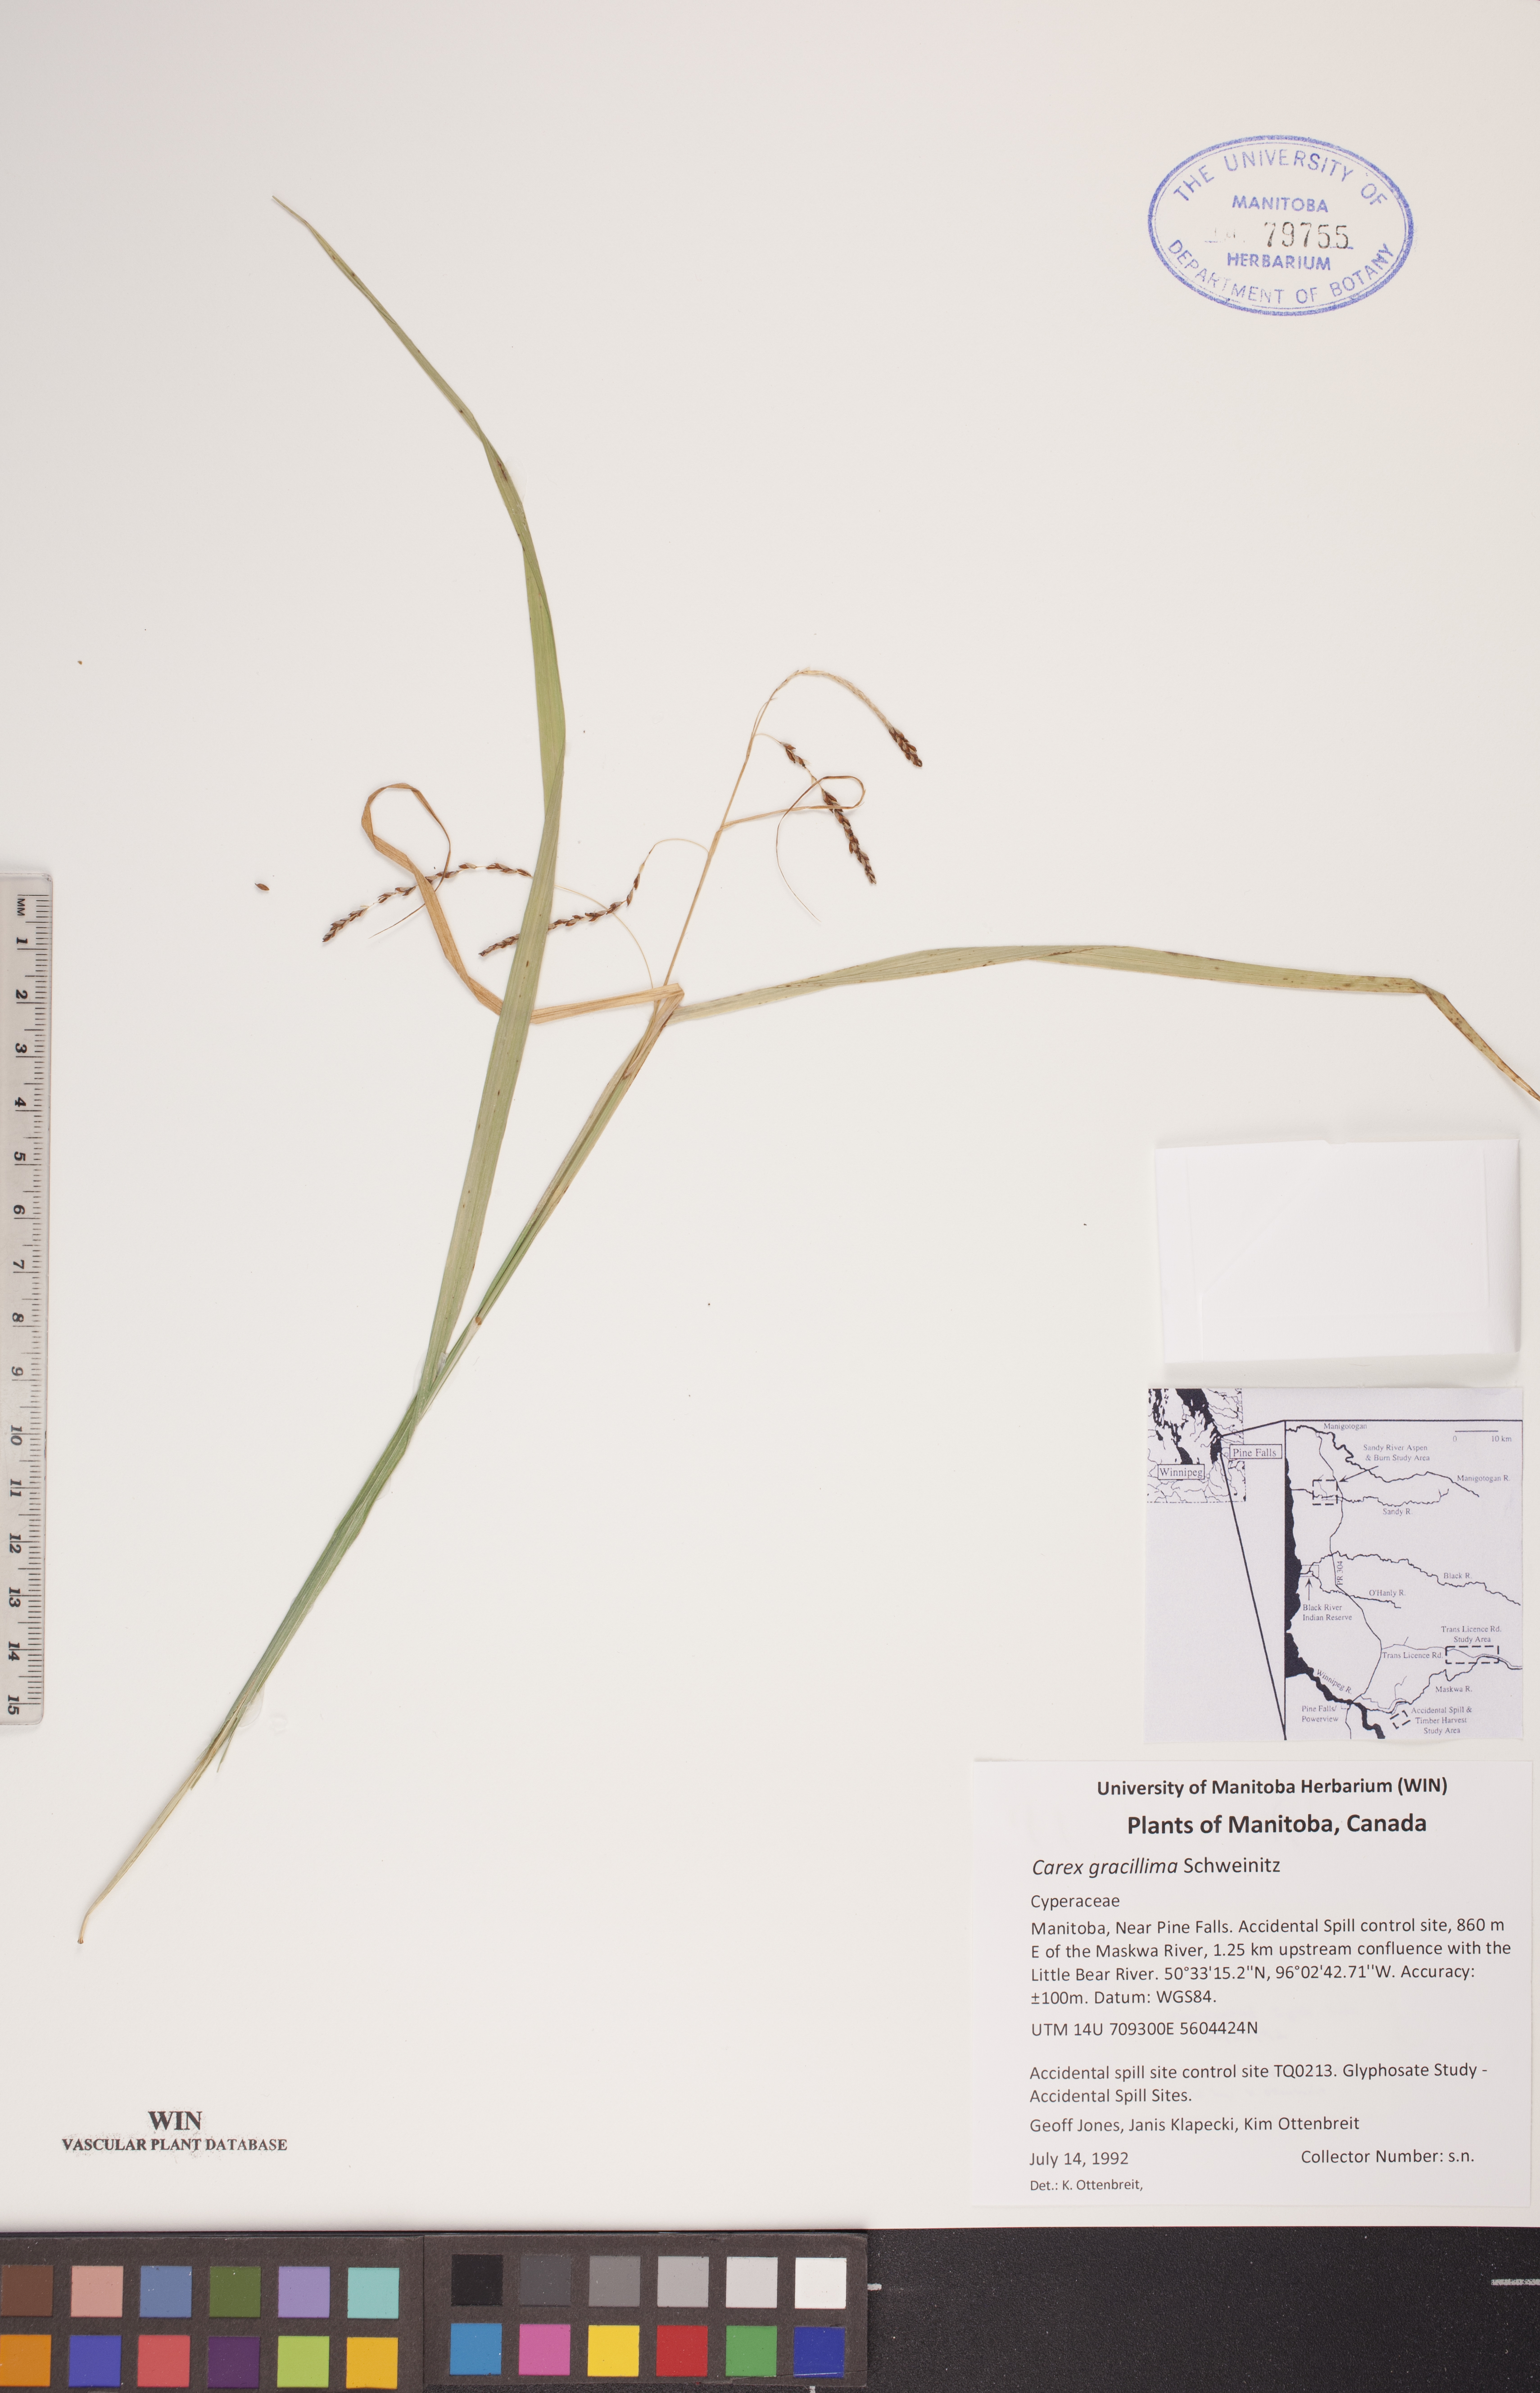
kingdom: Plantae
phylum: Tracheophyta
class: Liliopsida
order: Poales
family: Cyperaceae
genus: Carex
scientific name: Carex gracillima
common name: Graceful sedge
